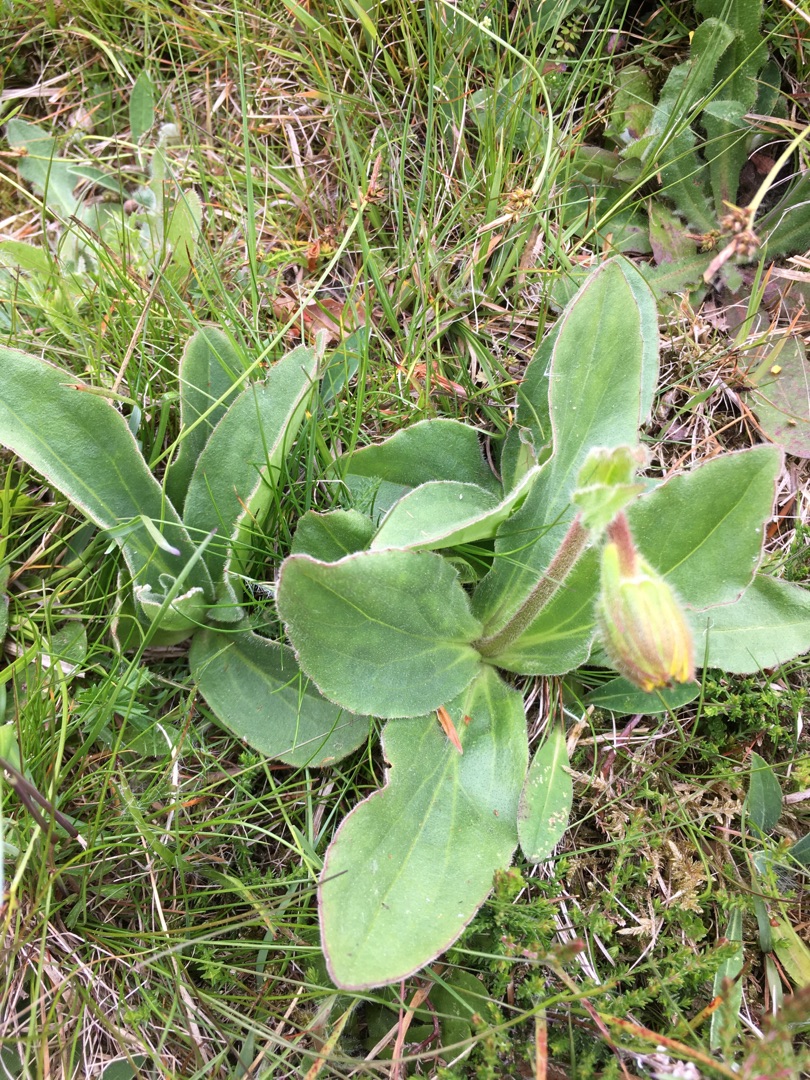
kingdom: Plantae
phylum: Tracheophyta
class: Magnoliopsida
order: Asterales
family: Asteraceae
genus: Arnica
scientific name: Arnica montana
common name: Guldblomme
